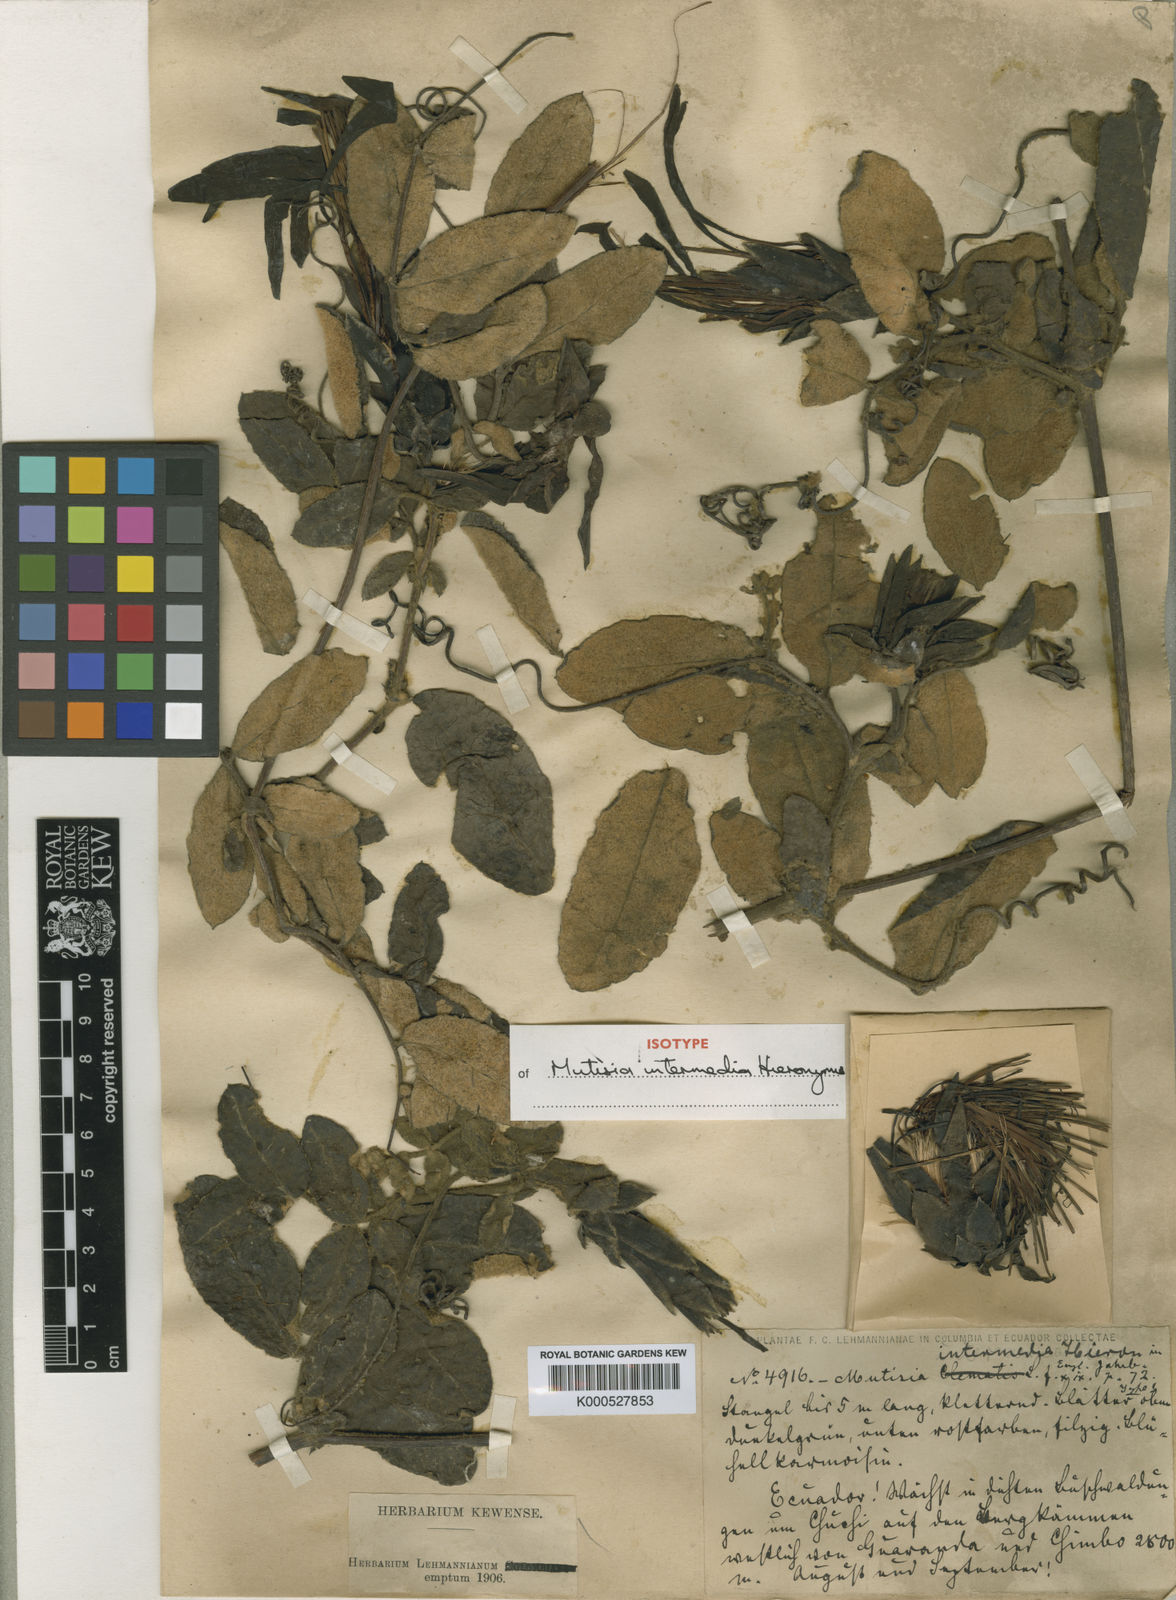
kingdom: Plantae
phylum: Tracheophyta
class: Magnoliopsida
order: Asterales
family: Asteraceae
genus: Mutisia
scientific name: Mutisia intermedia
